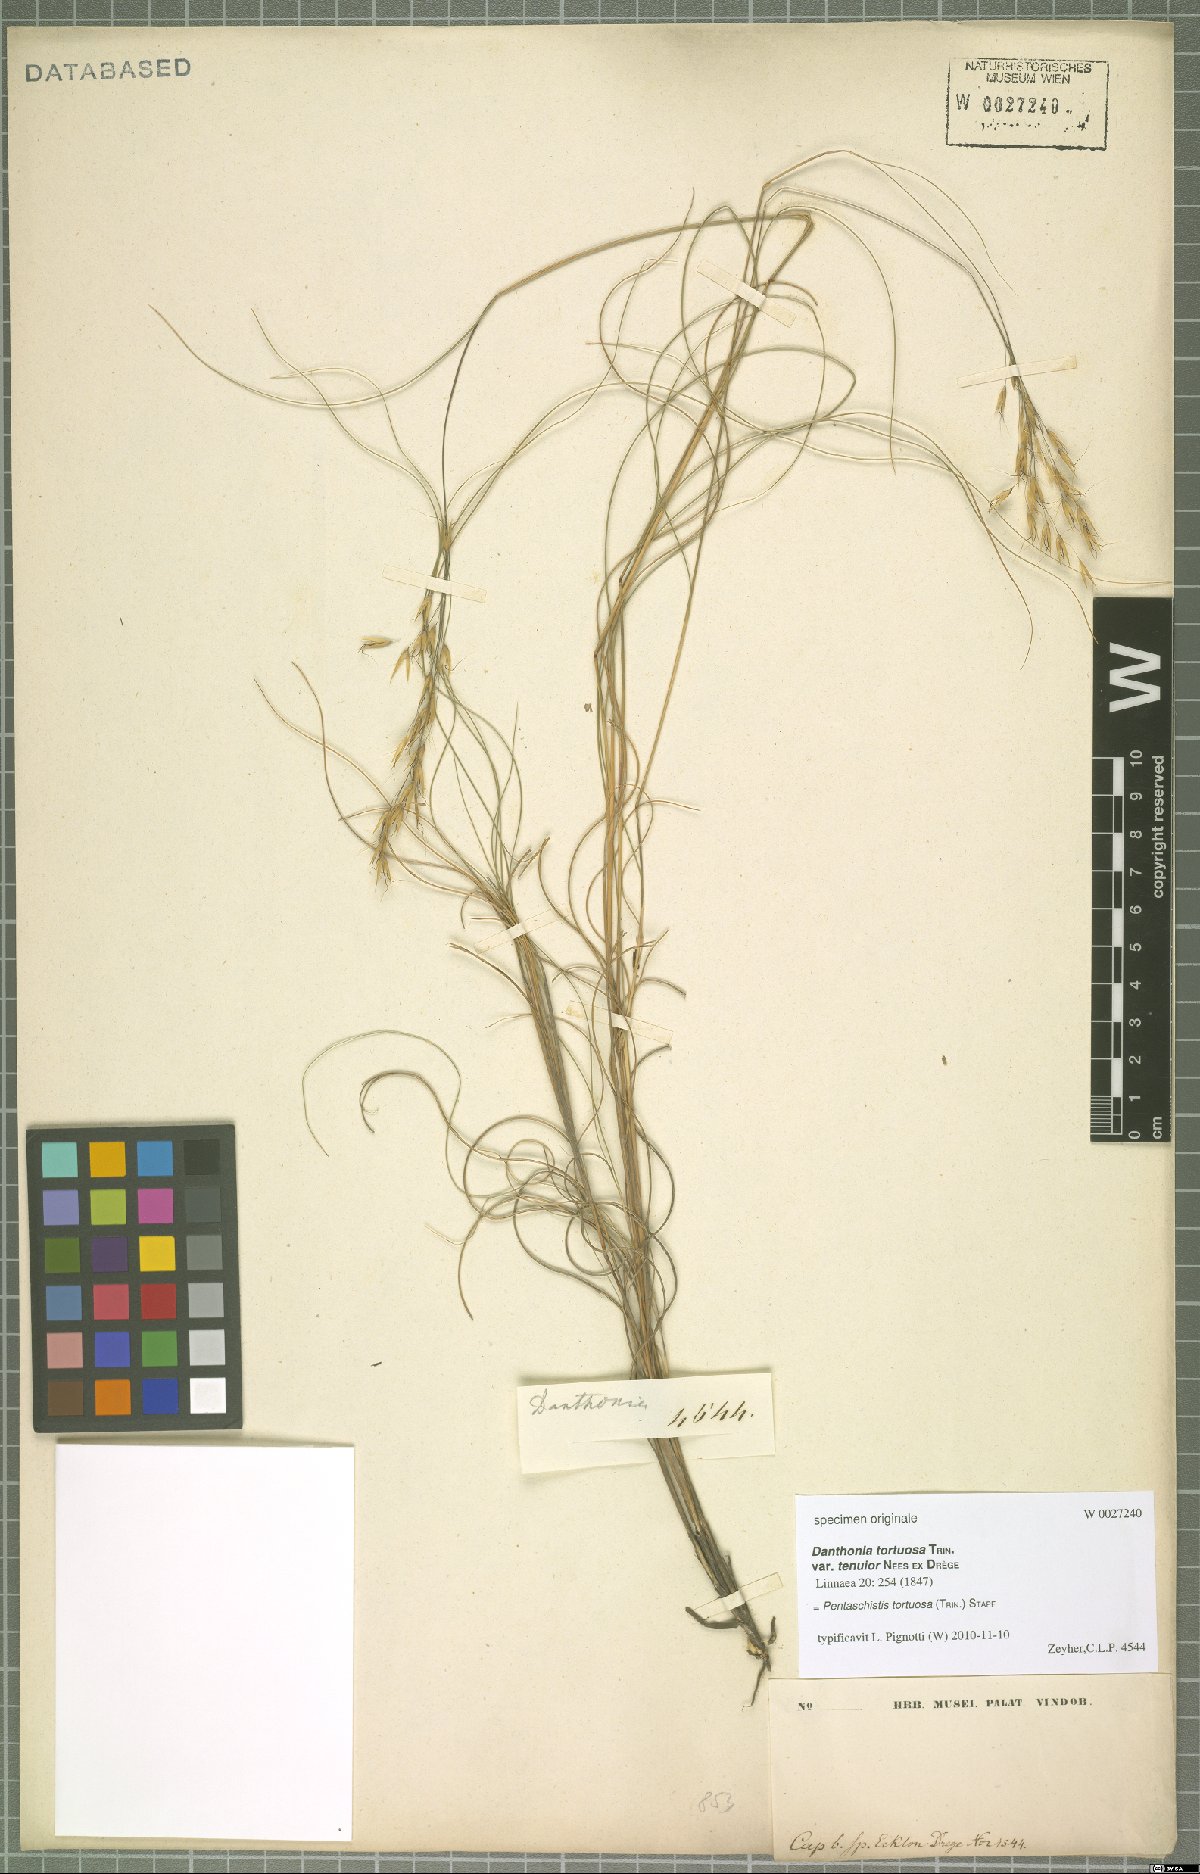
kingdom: Plantae
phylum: Tracheophyta
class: Liliopsida
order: Poales
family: Poaceae
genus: Pentameris
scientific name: Pentameris tortuosa
